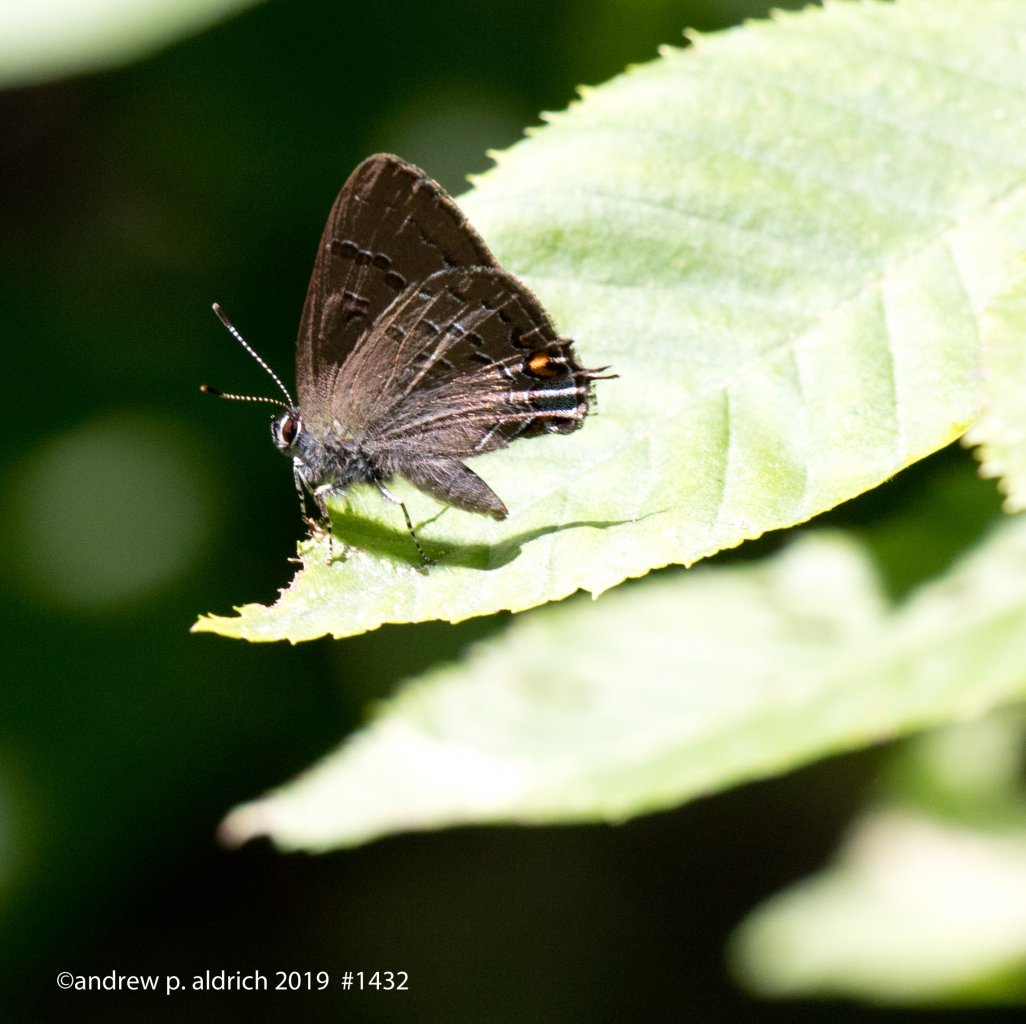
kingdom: Animalia
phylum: Arthropoda
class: Insecta
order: Lepidoptera
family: Lycaenidae
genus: Satyrium
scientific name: Satyrium calanus
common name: Banded Hairstreak
